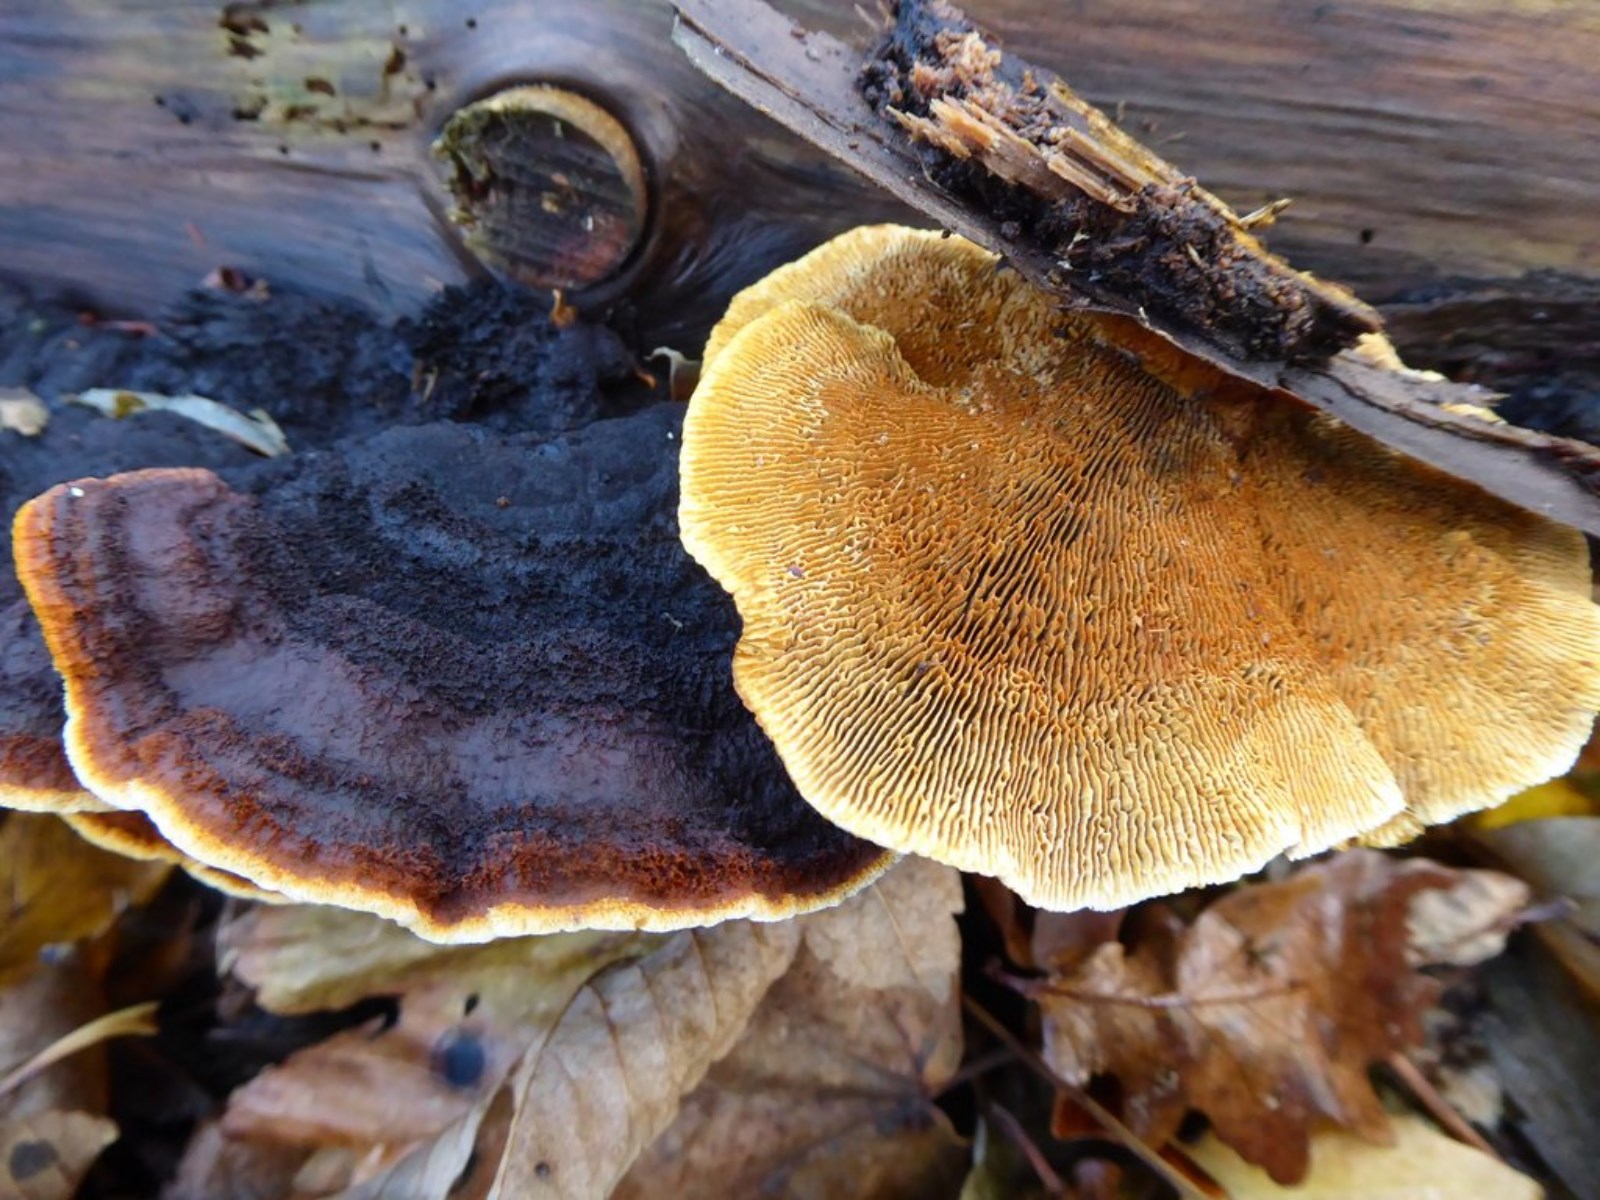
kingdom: Fungi
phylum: Basidiomycota
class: Agaricomycetes
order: Gloeophyllales
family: Gloeophyllaceae
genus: Gloeophyllum
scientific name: Gloeophyllum sepiarium
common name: fyrre-korkhat
